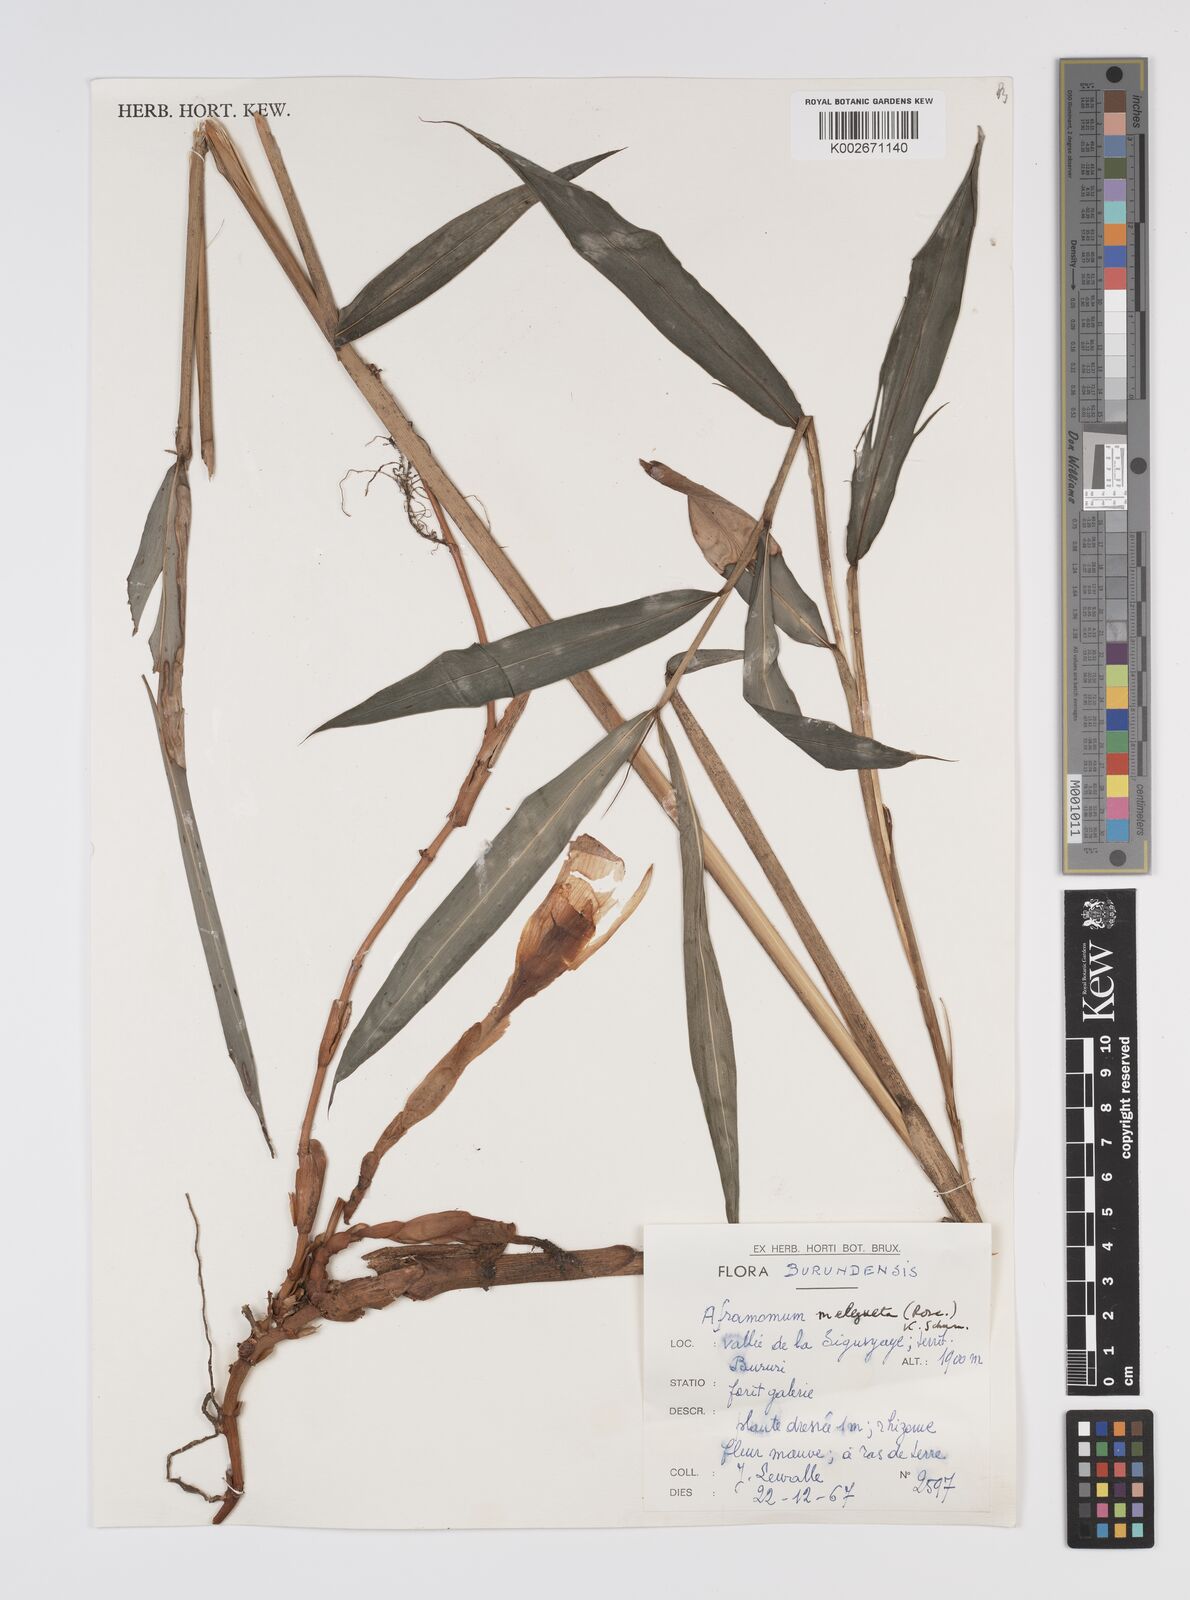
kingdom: Plantae
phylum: Tracheophyta
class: Liliopsida
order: Zingiberales
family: Zingiberaceae
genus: Aframomum
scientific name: Aframomum melegueta
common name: Grains of paradise
